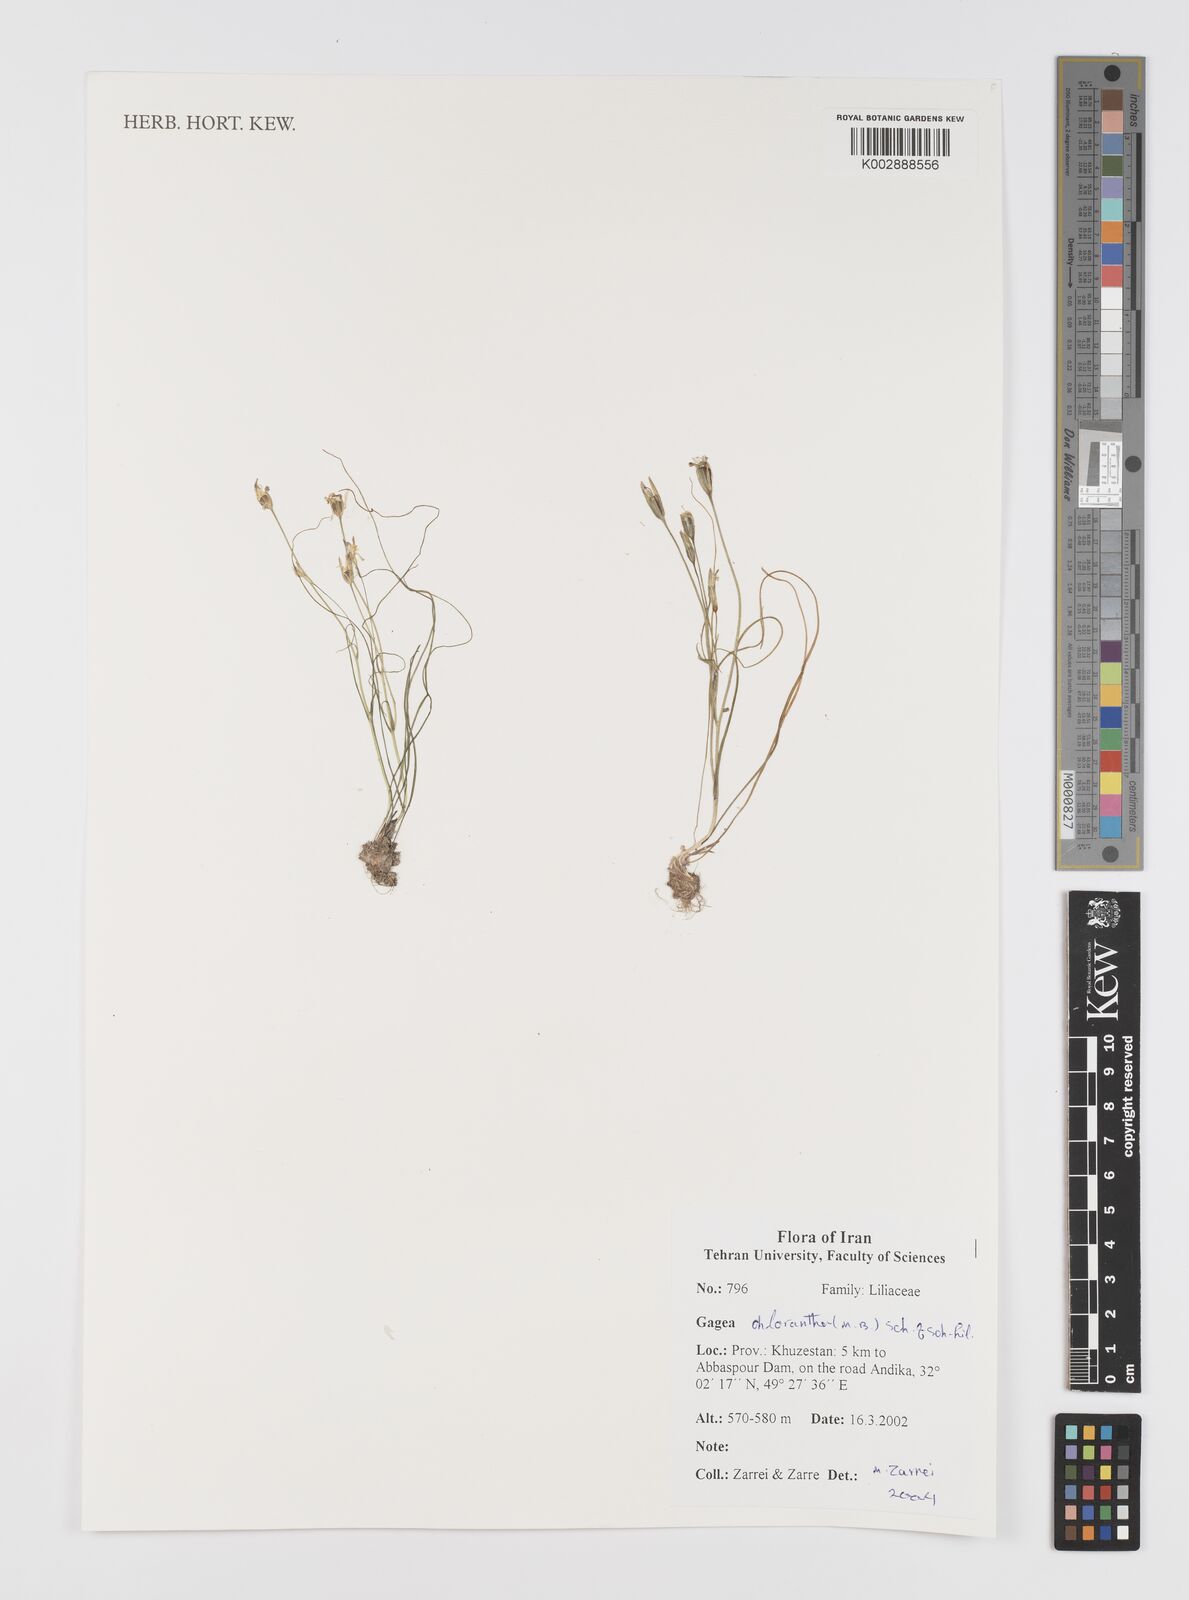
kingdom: Plantae
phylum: Tracheophyta
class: Liliopsida
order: Liliales
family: Liliaceae
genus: Gagea
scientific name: Gagea chlorantha
